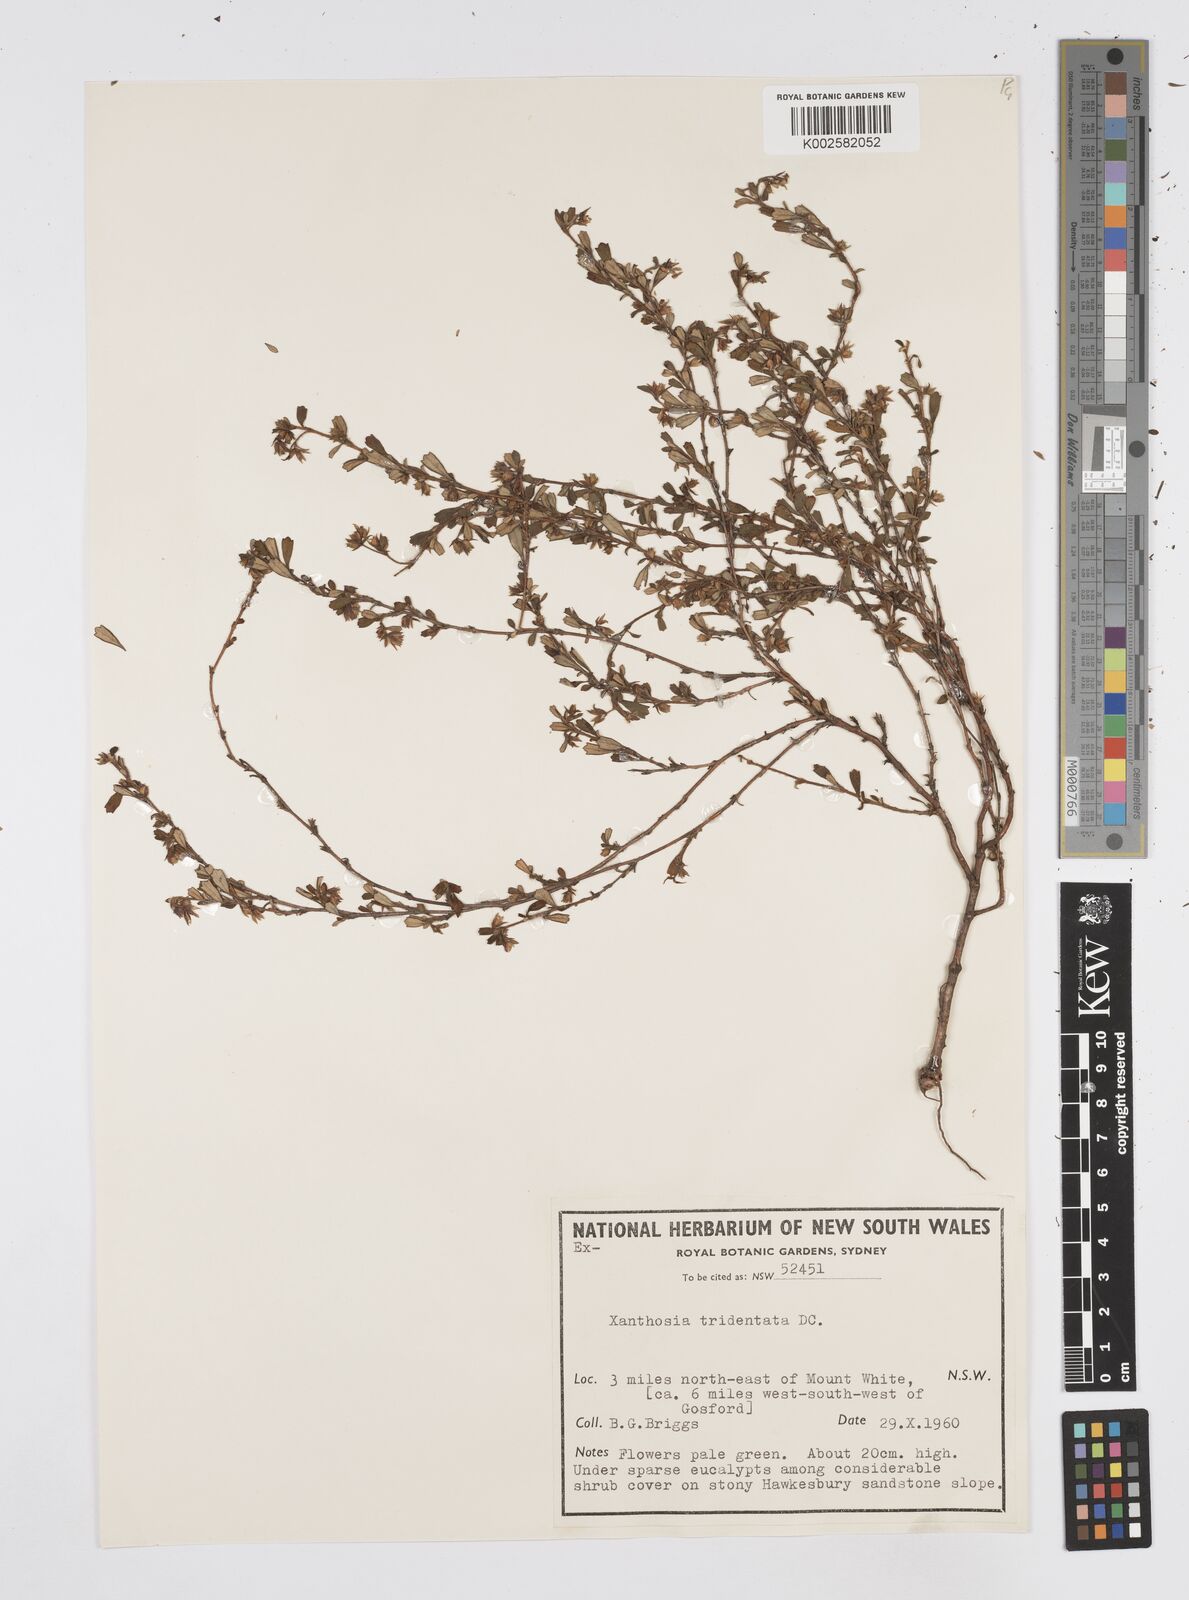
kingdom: Plantae
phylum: Tracheophyta
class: Magnoliopsida
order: Apiales
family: Apiaceae
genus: Xanthosia
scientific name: Xanthosia tridentata
